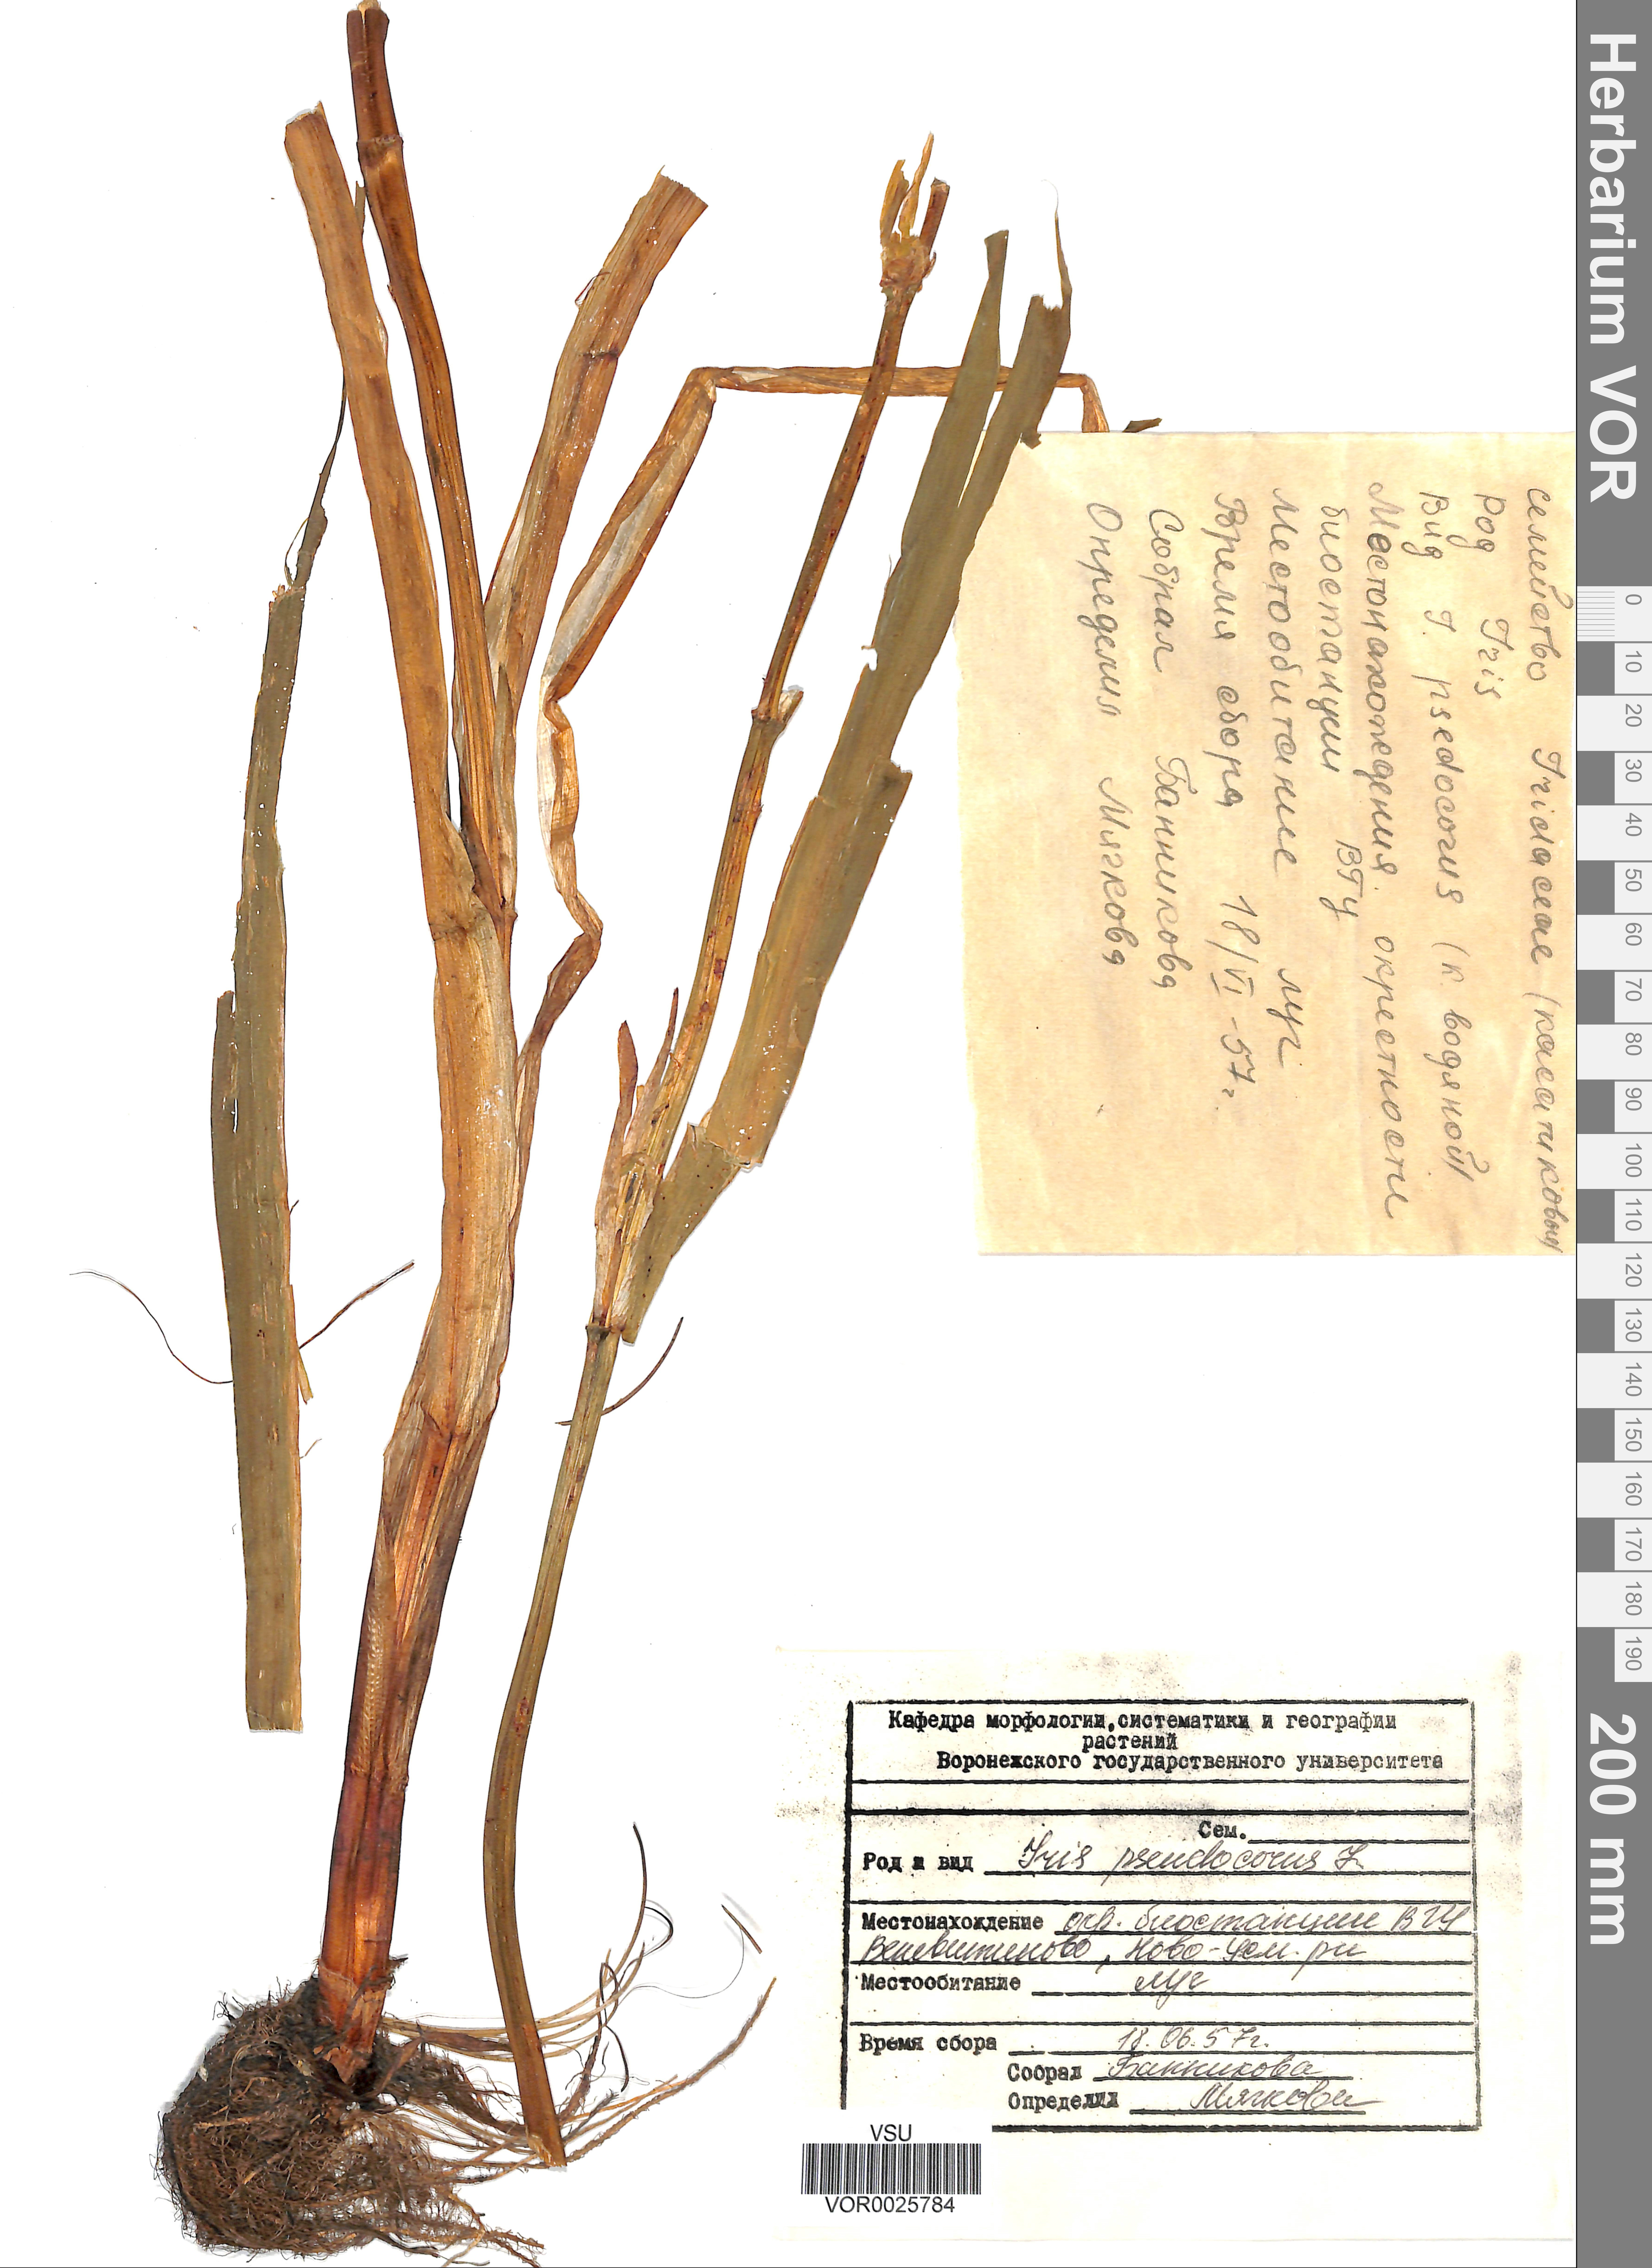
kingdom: Plantae
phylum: Tracheophyta
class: Liliopsida
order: Asparagales
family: Iridaceae
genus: Iris
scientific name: Iris pseudacorus
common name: Yellow flag
